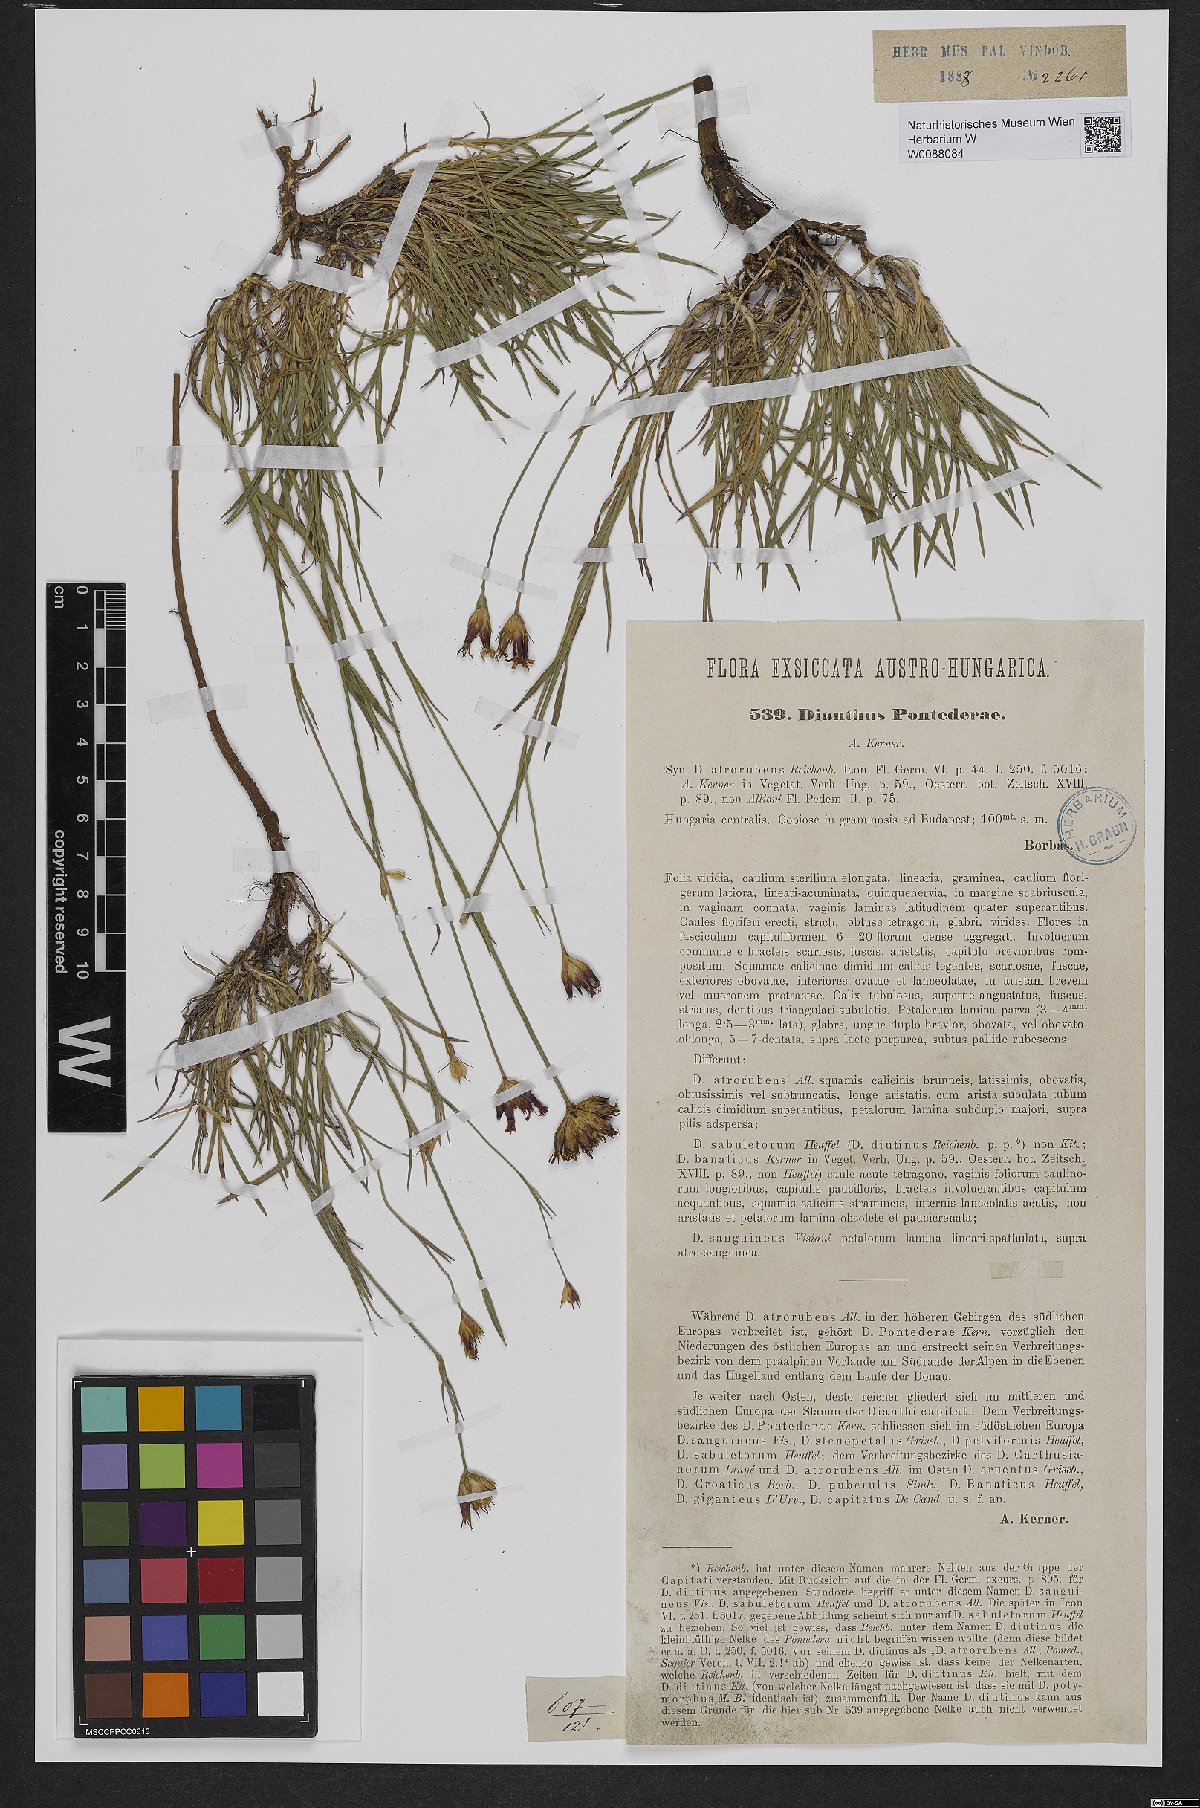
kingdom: Plantae
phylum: Tracheophyta
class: Magnoliopsida
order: Caryophyllales
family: Caryophyllaceae
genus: Dianthus
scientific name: Dianthus pontederae
